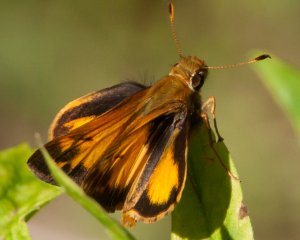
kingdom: Animalia
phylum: Arthropoda
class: Insecta
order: Lepidoptera
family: Hesperiidae
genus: Lon
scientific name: Lon zabulon
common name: Zabulon Skipper
